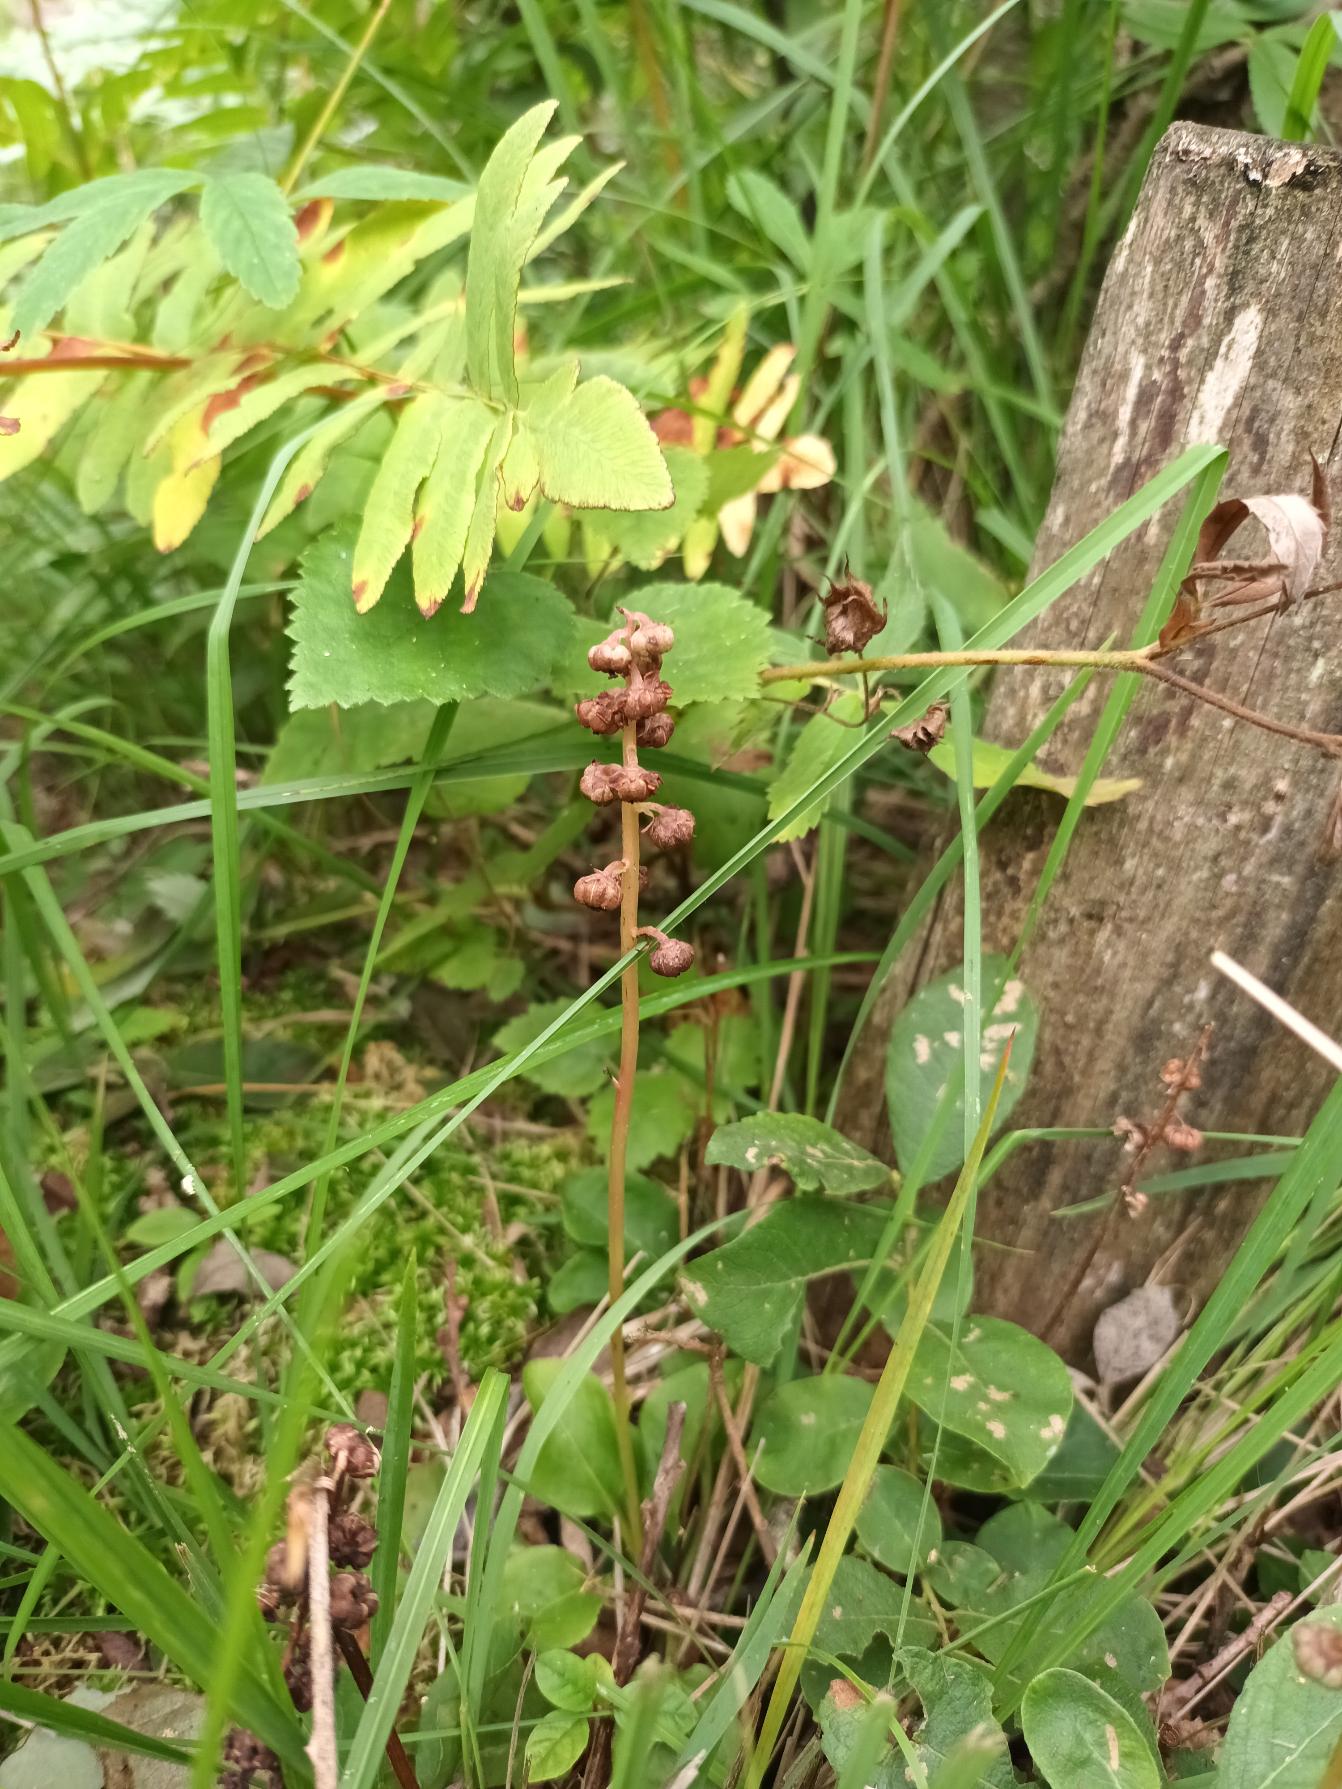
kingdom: Plantae
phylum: Tracheophyta
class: Magnoliopsida
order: Ericales
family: Ericaceae
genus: Pyrola
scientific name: Pyrola minor
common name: Liden vintergrøn
